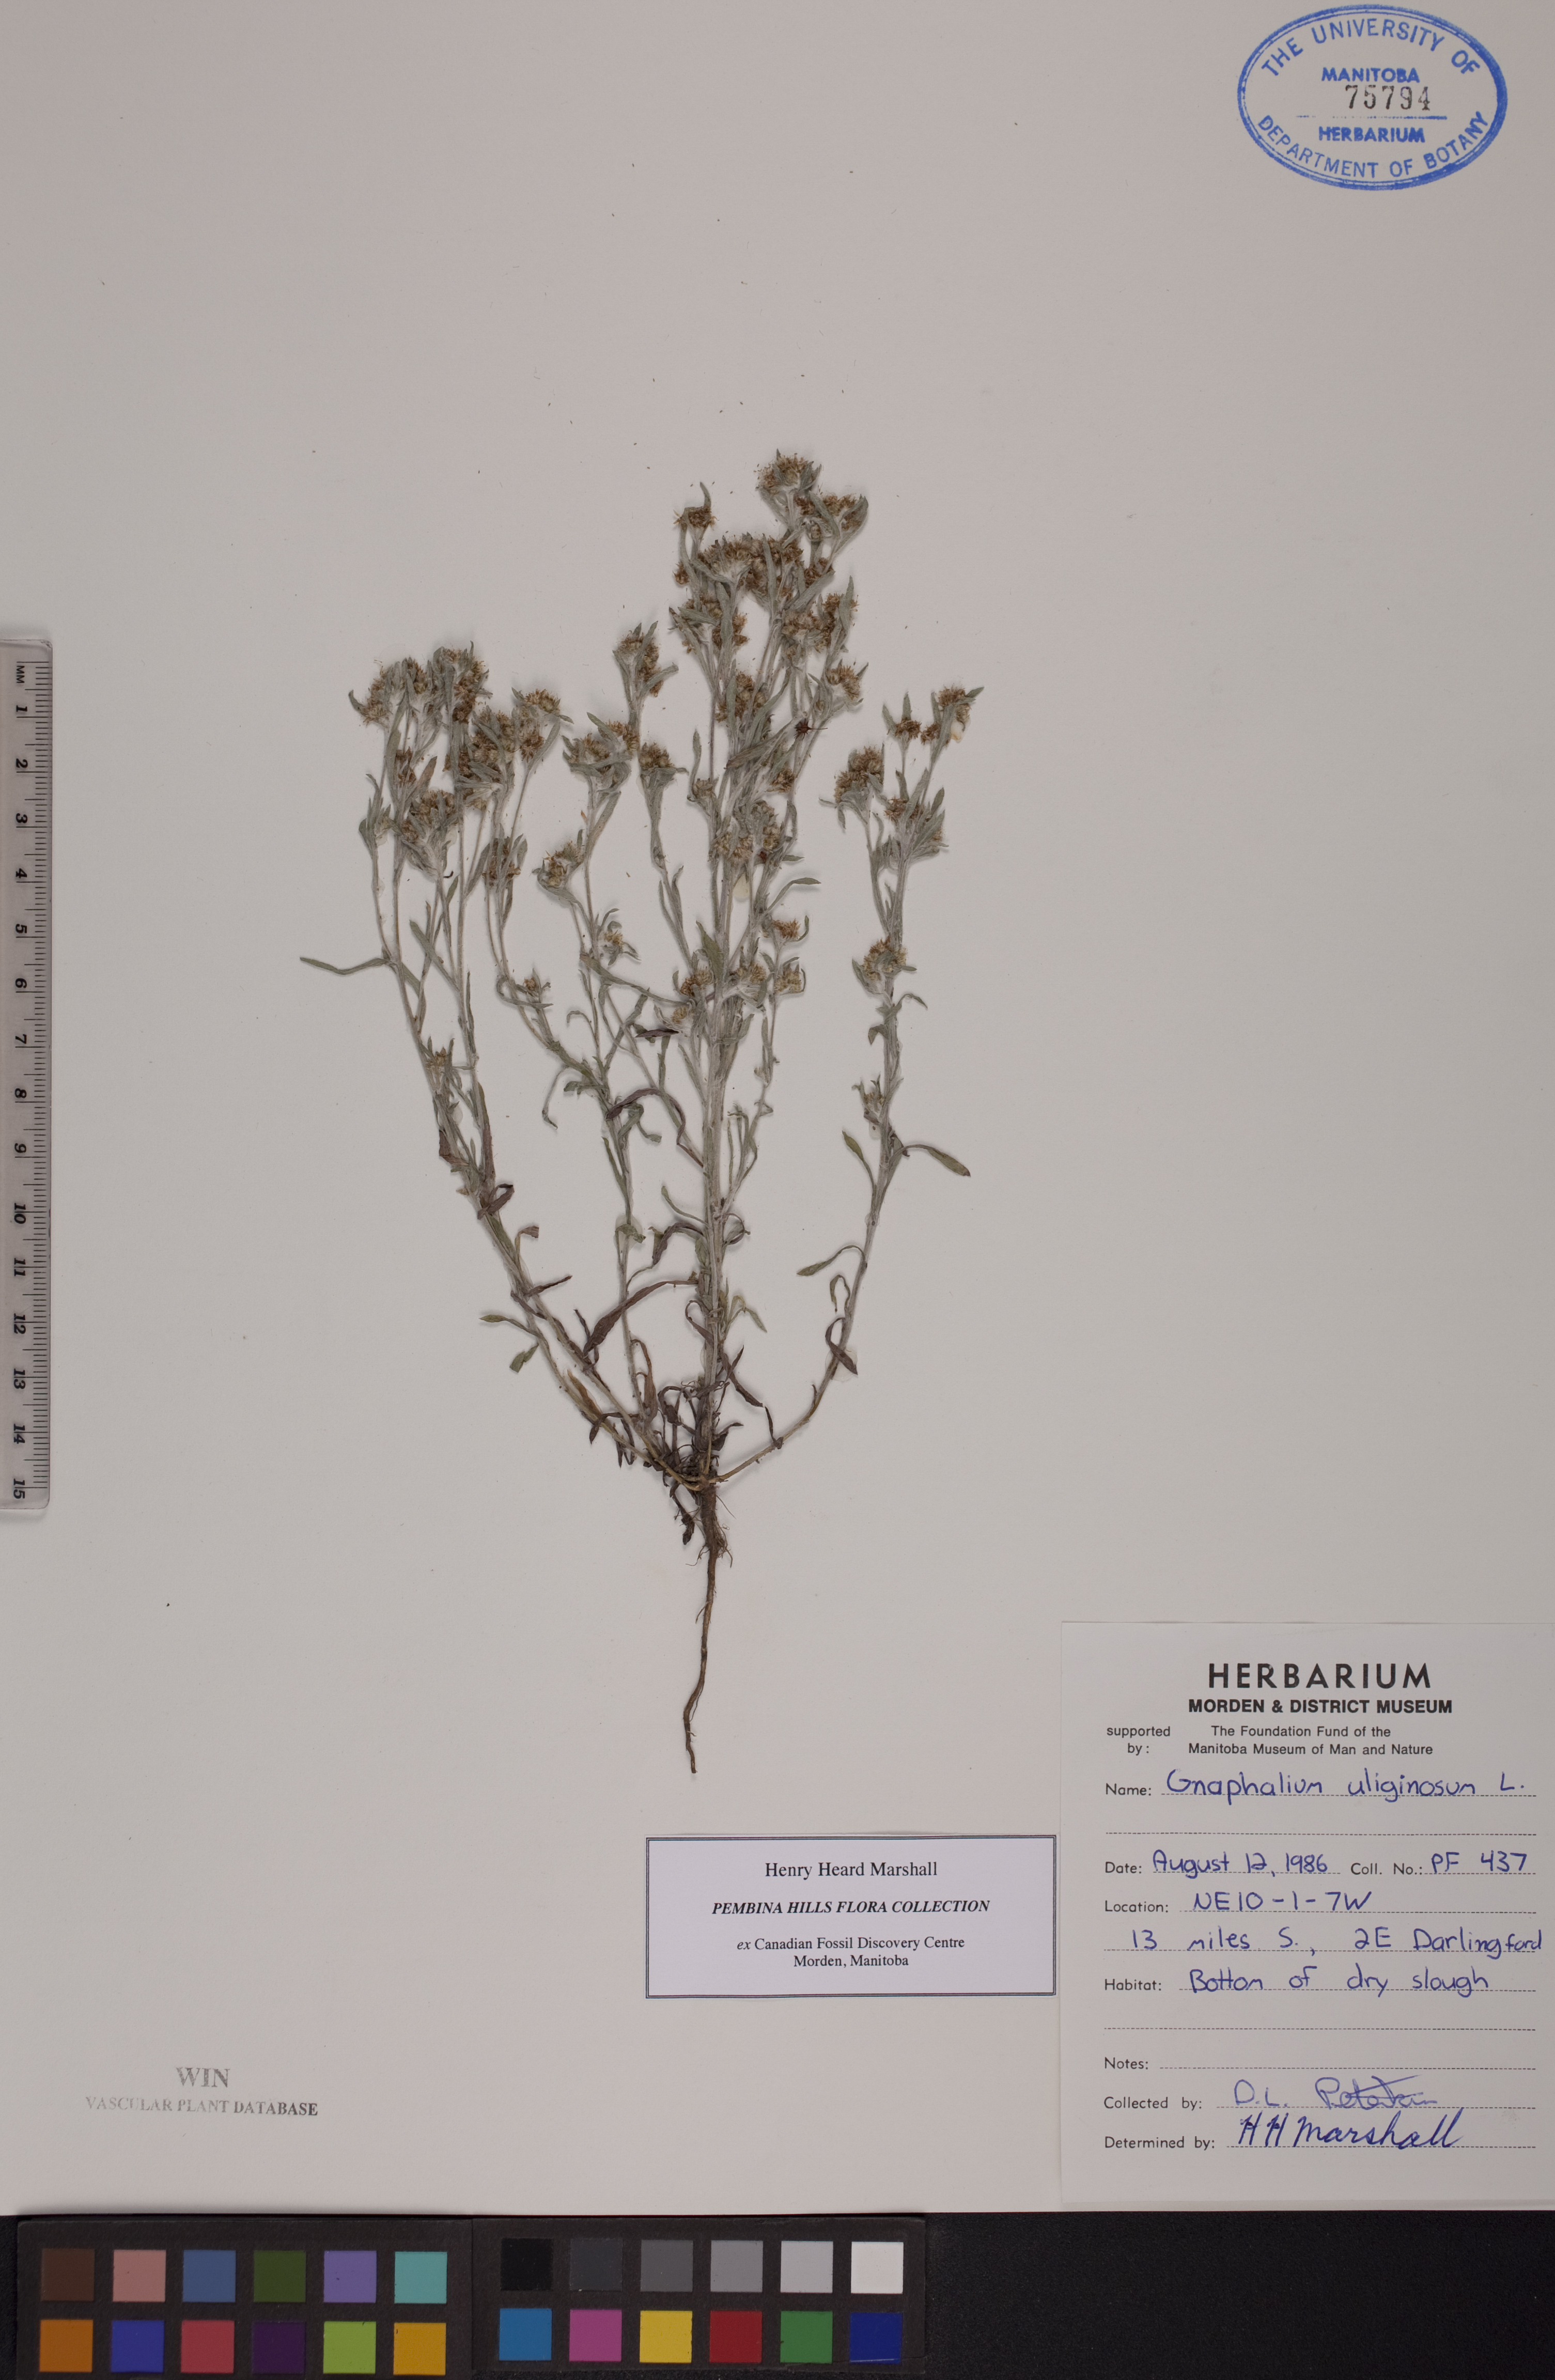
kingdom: Plantae
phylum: Tracheophyta
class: Magnoliopsida
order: Asterales
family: Asteraceae
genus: Gnaphalium
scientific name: Gnaphalium uliginosum
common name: Marsh cudweed
